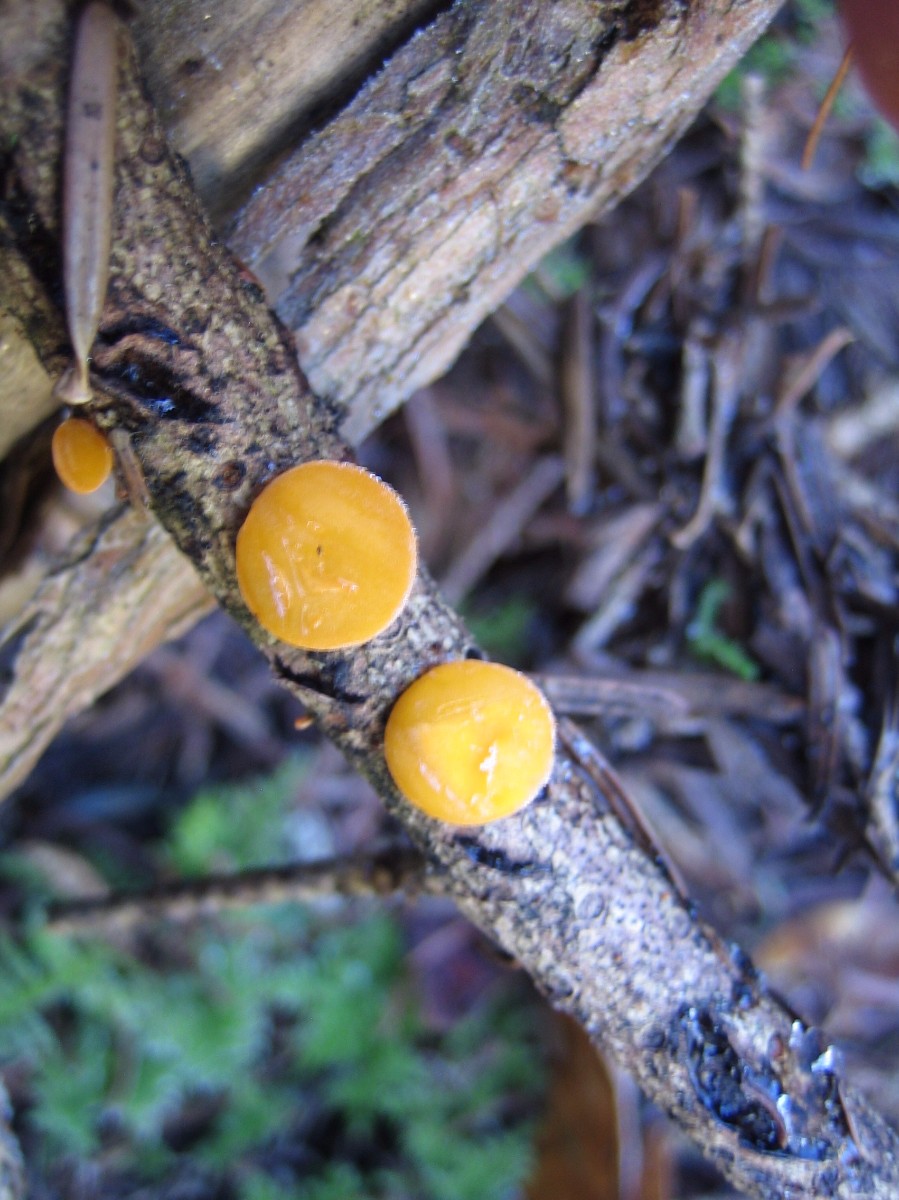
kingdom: Fungi
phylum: Ascomycota
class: Pezizomycetes
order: Pezizales
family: Sarcoscyphaceae
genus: Pithya
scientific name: Pithya vulgaris
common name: stor dukatbæger
